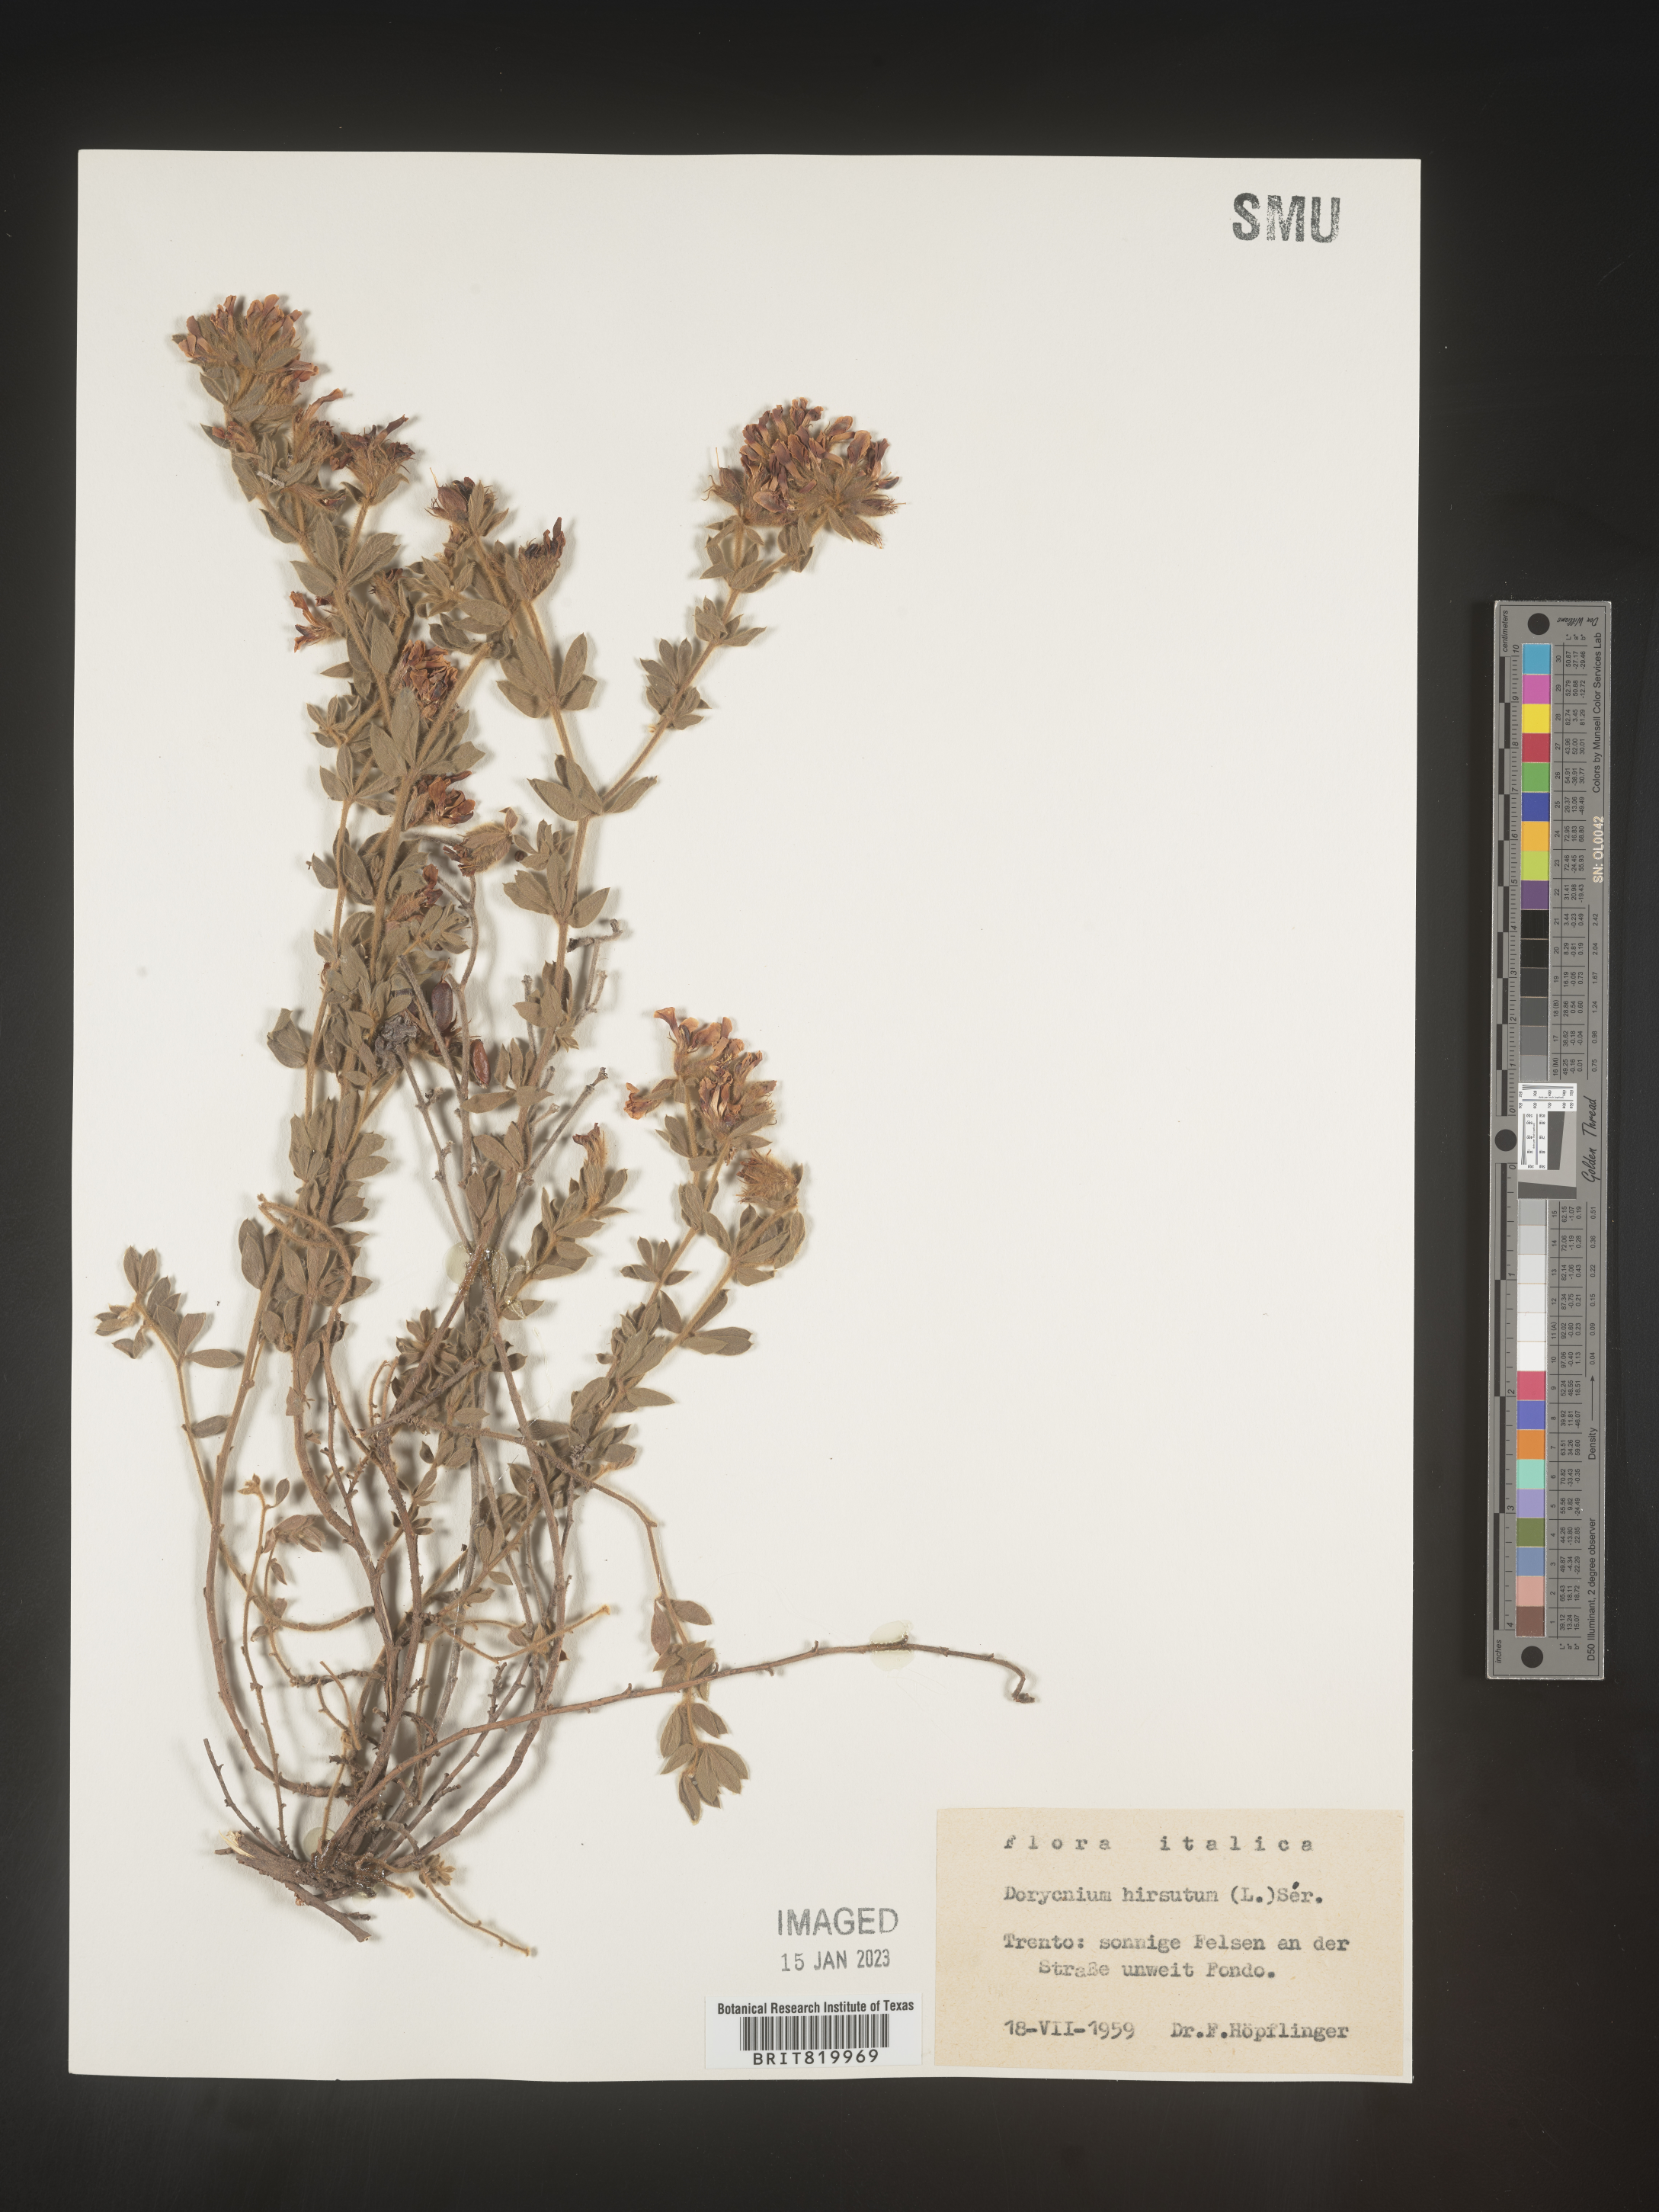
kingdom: Plantae
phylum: Tracheophyta
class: Magnoliopsida
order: Fabales
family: Fabaceae
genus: Lotus
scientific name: Lotus
